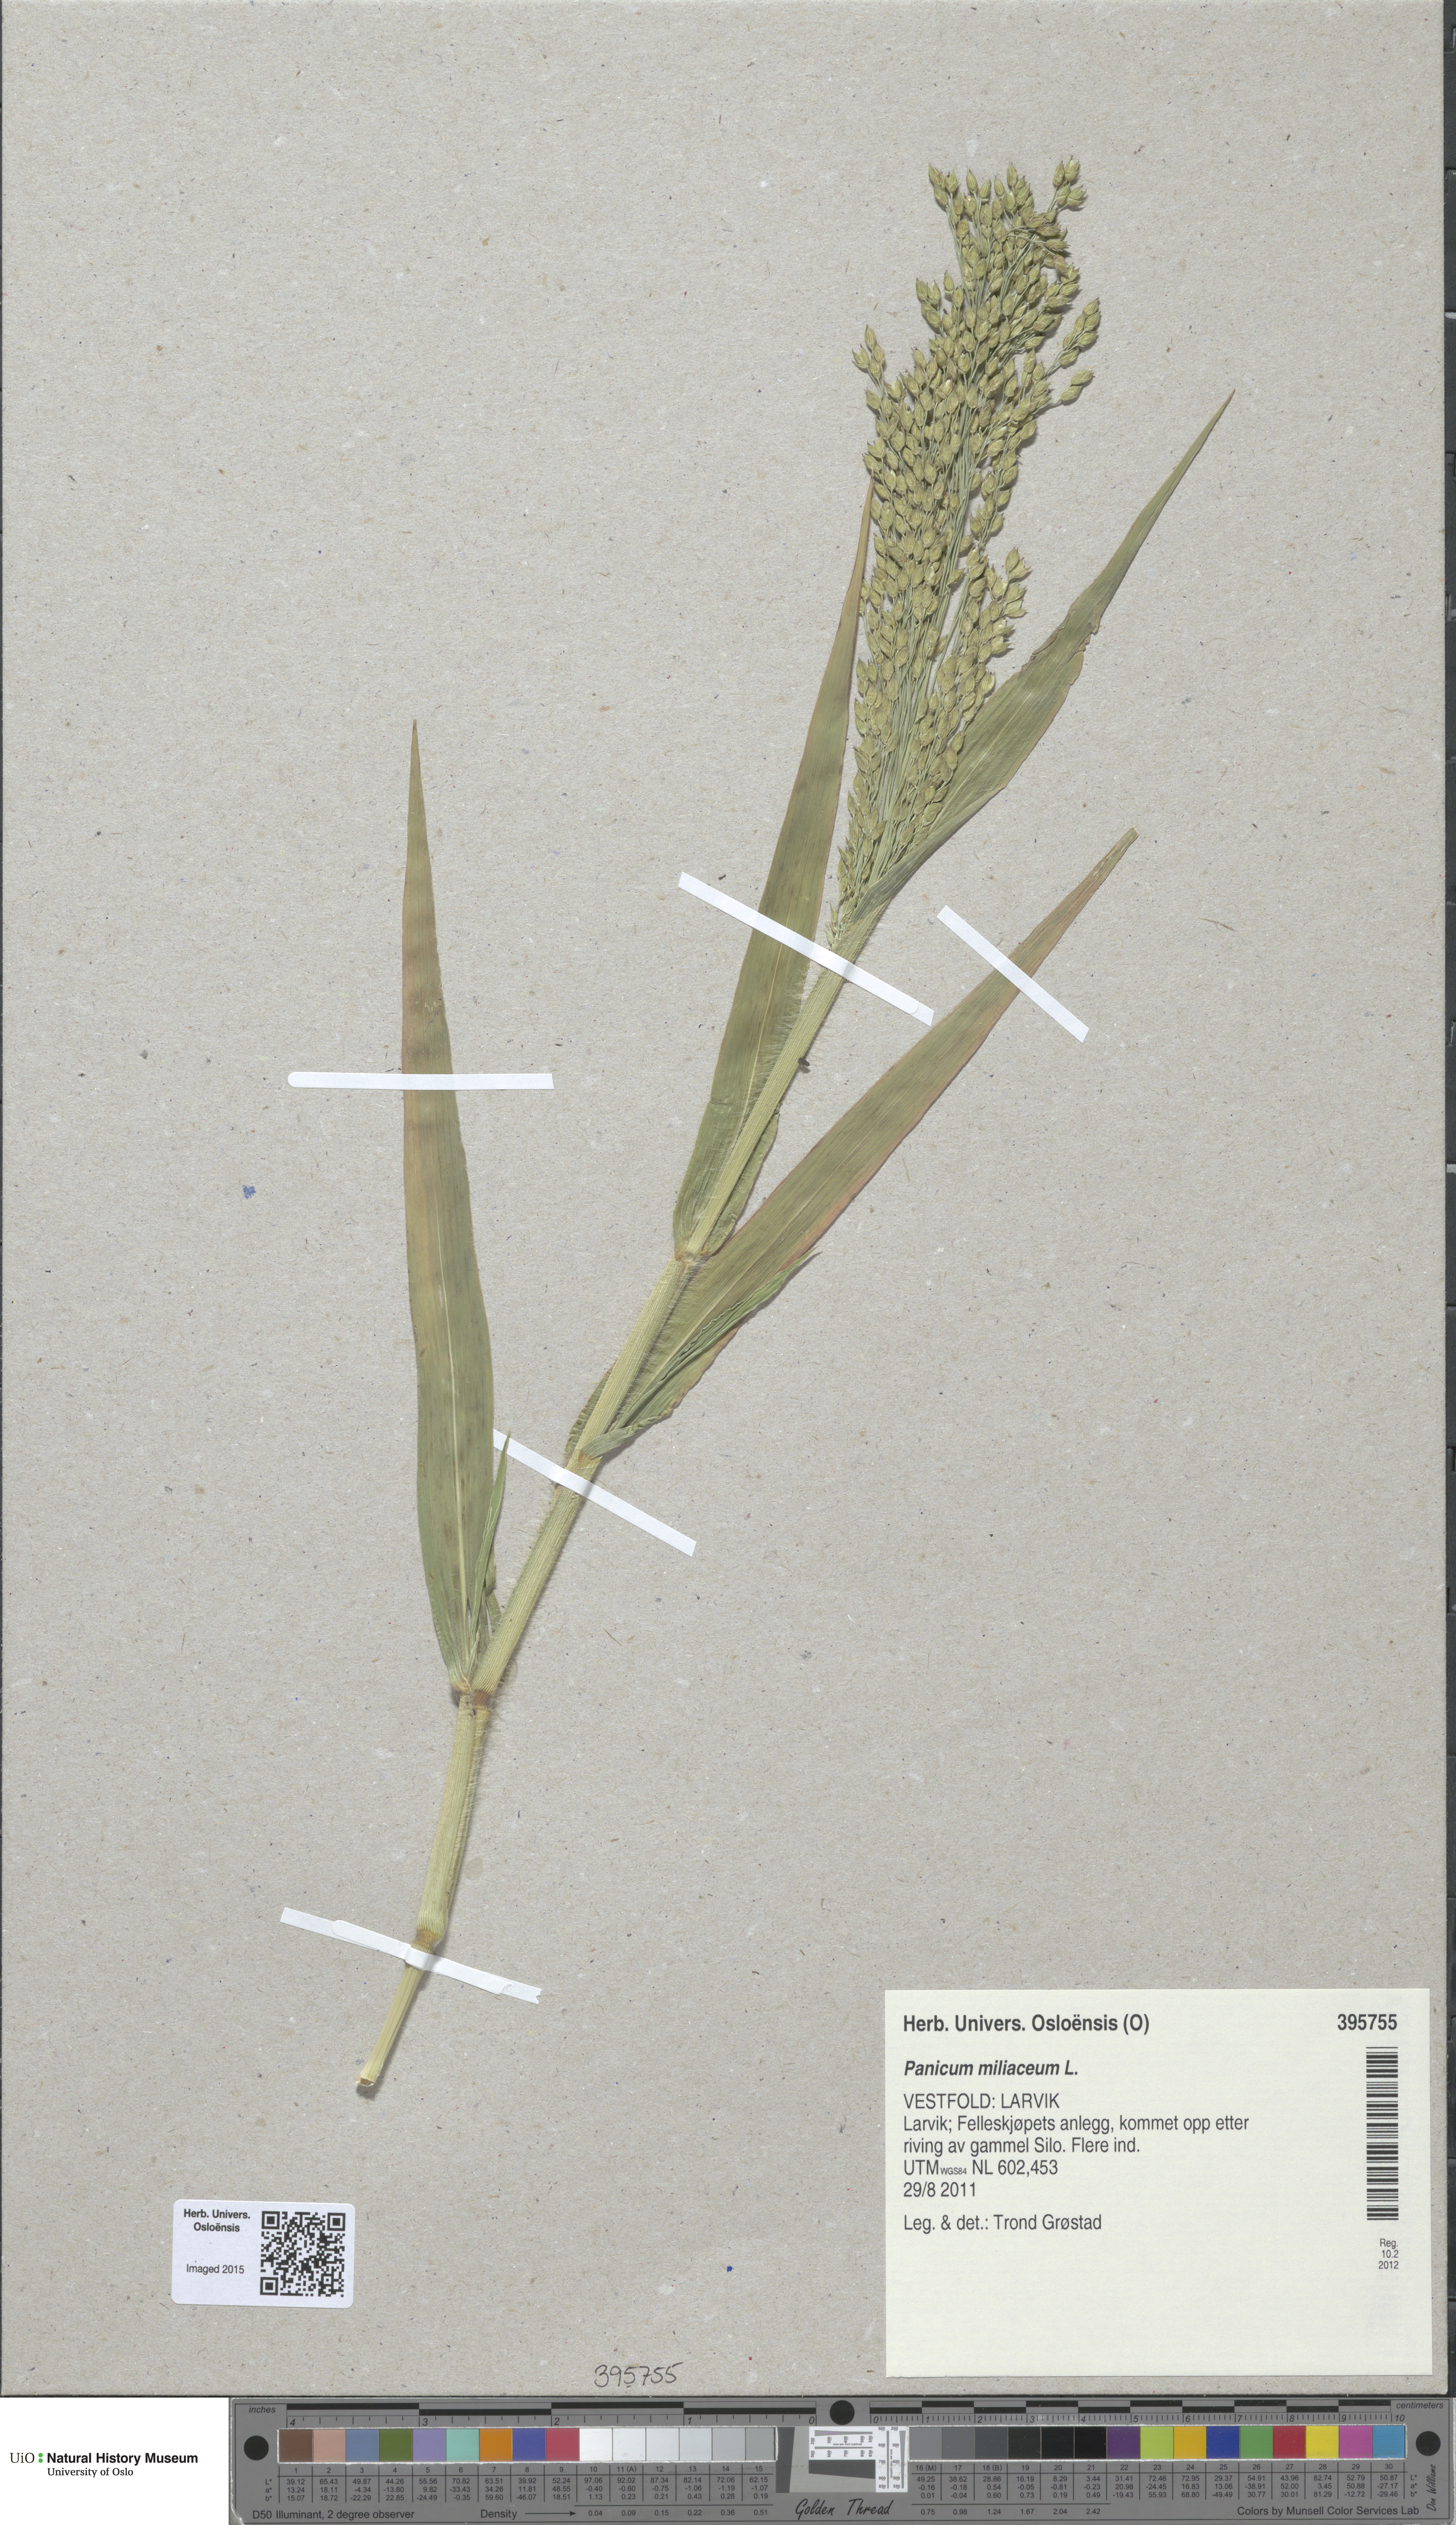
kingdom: Plantae
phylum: Tracheophyta
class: Liliopsida
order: Poales
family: Poaceae
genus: Panicum
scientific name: Panicum miliaceum
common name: Common millet
